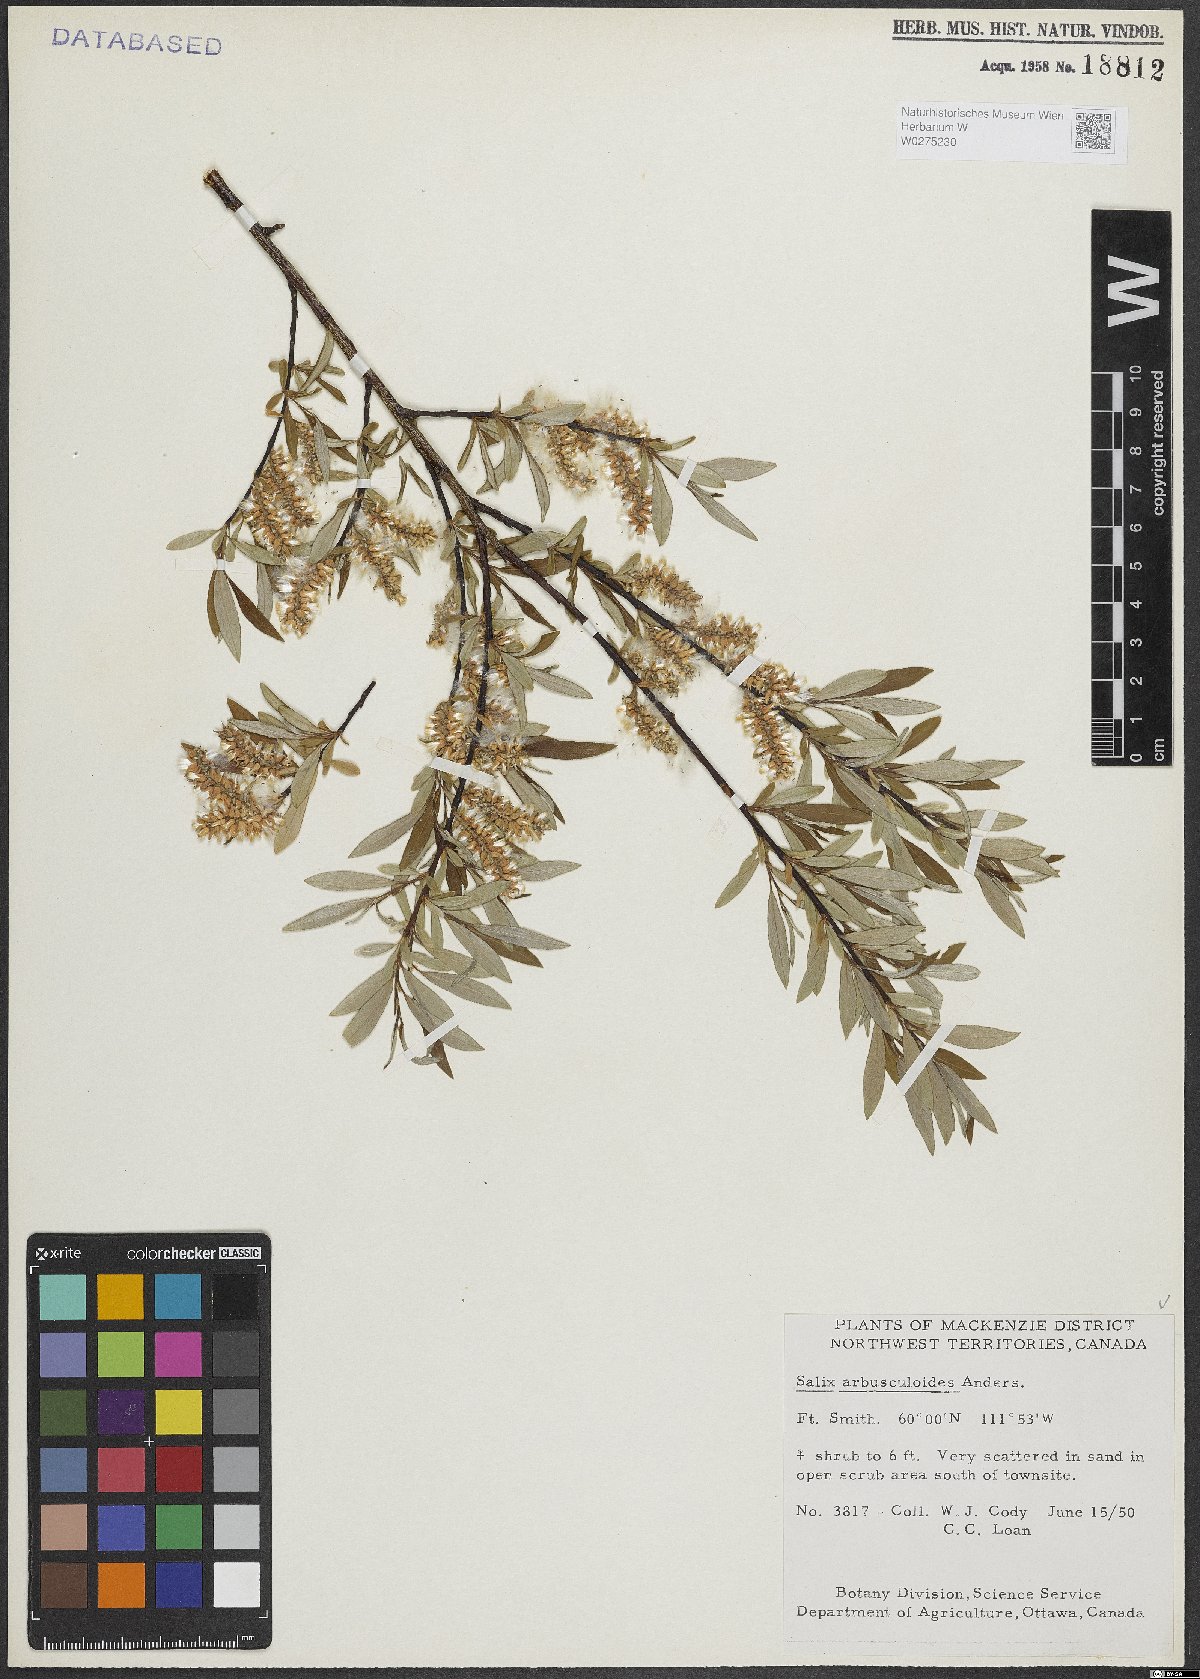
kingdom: Plantae
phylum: Tracheophyta
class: Magnoliopsida
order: Malpighiales
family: Salicaceae
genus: Salix
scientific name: Salix arbusculoides
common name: Little-tree willow
